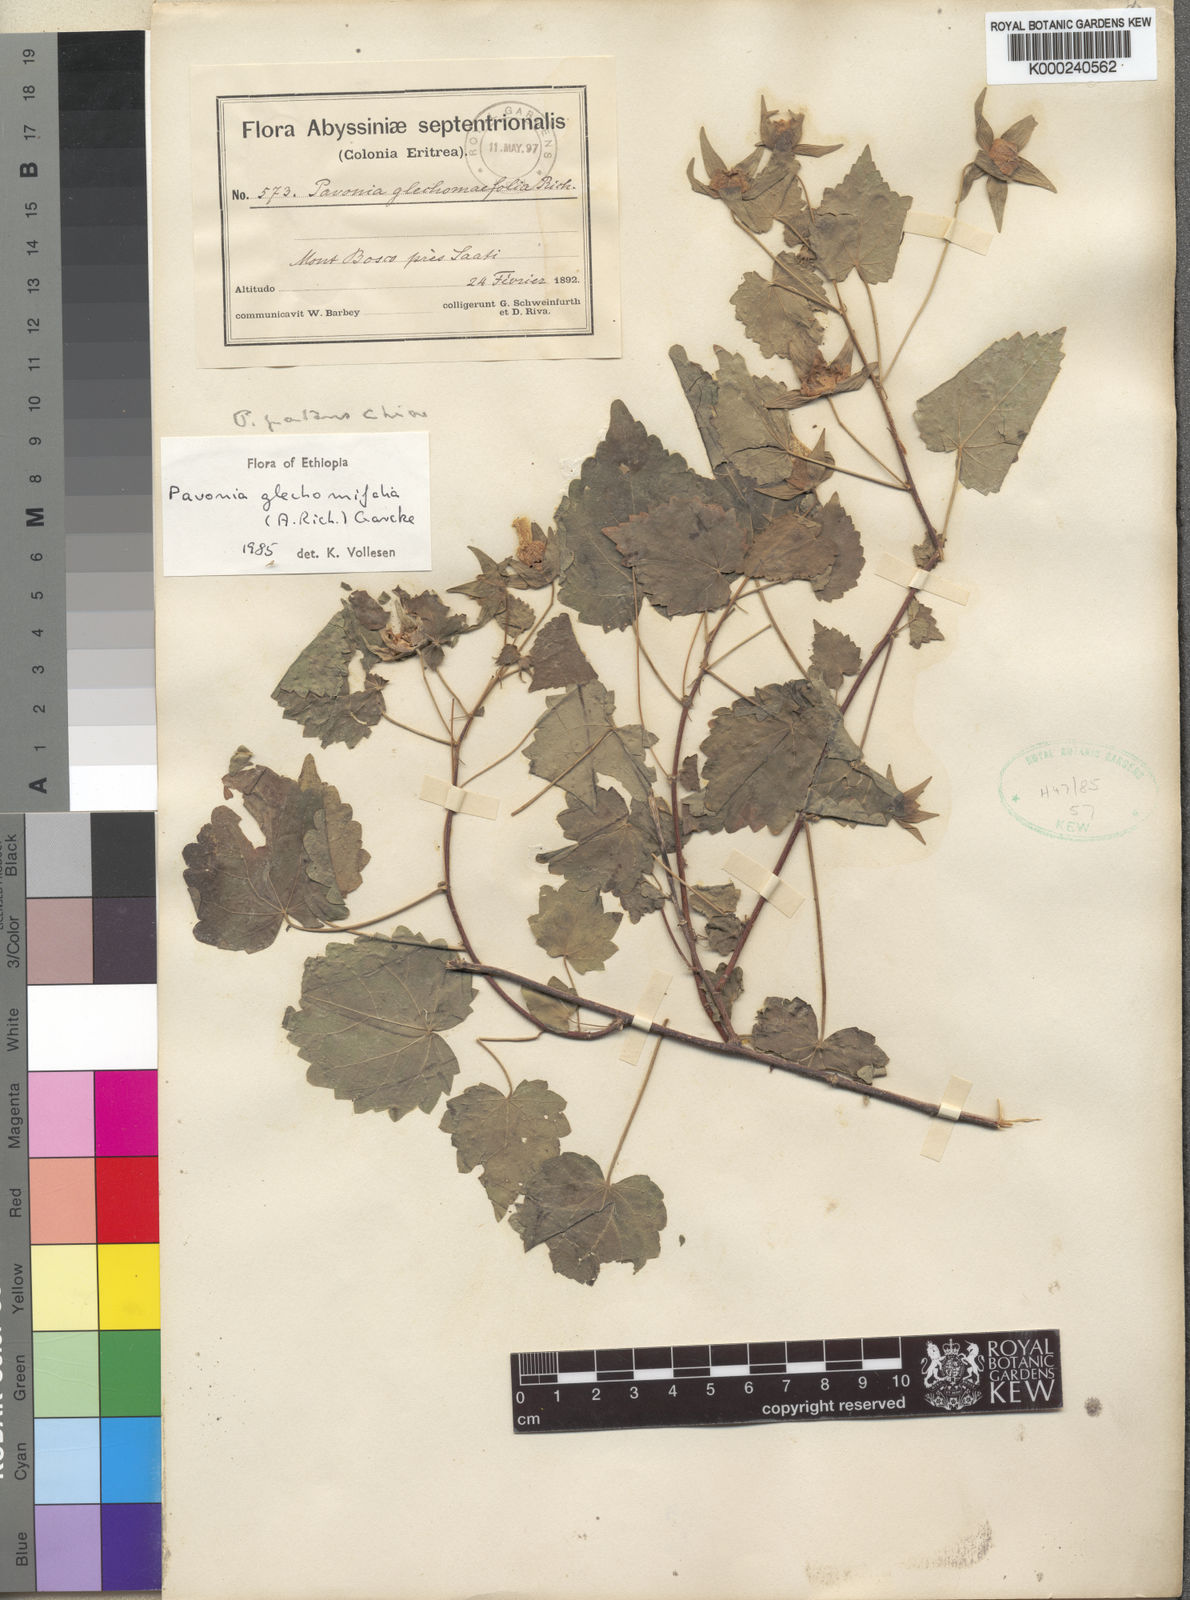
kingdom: Plantae
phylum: Tracheophyta
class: Magnoliopsida
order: Malvales
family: Malvaceae
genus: Pavonia
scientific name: Pavonia flavoferruginea
